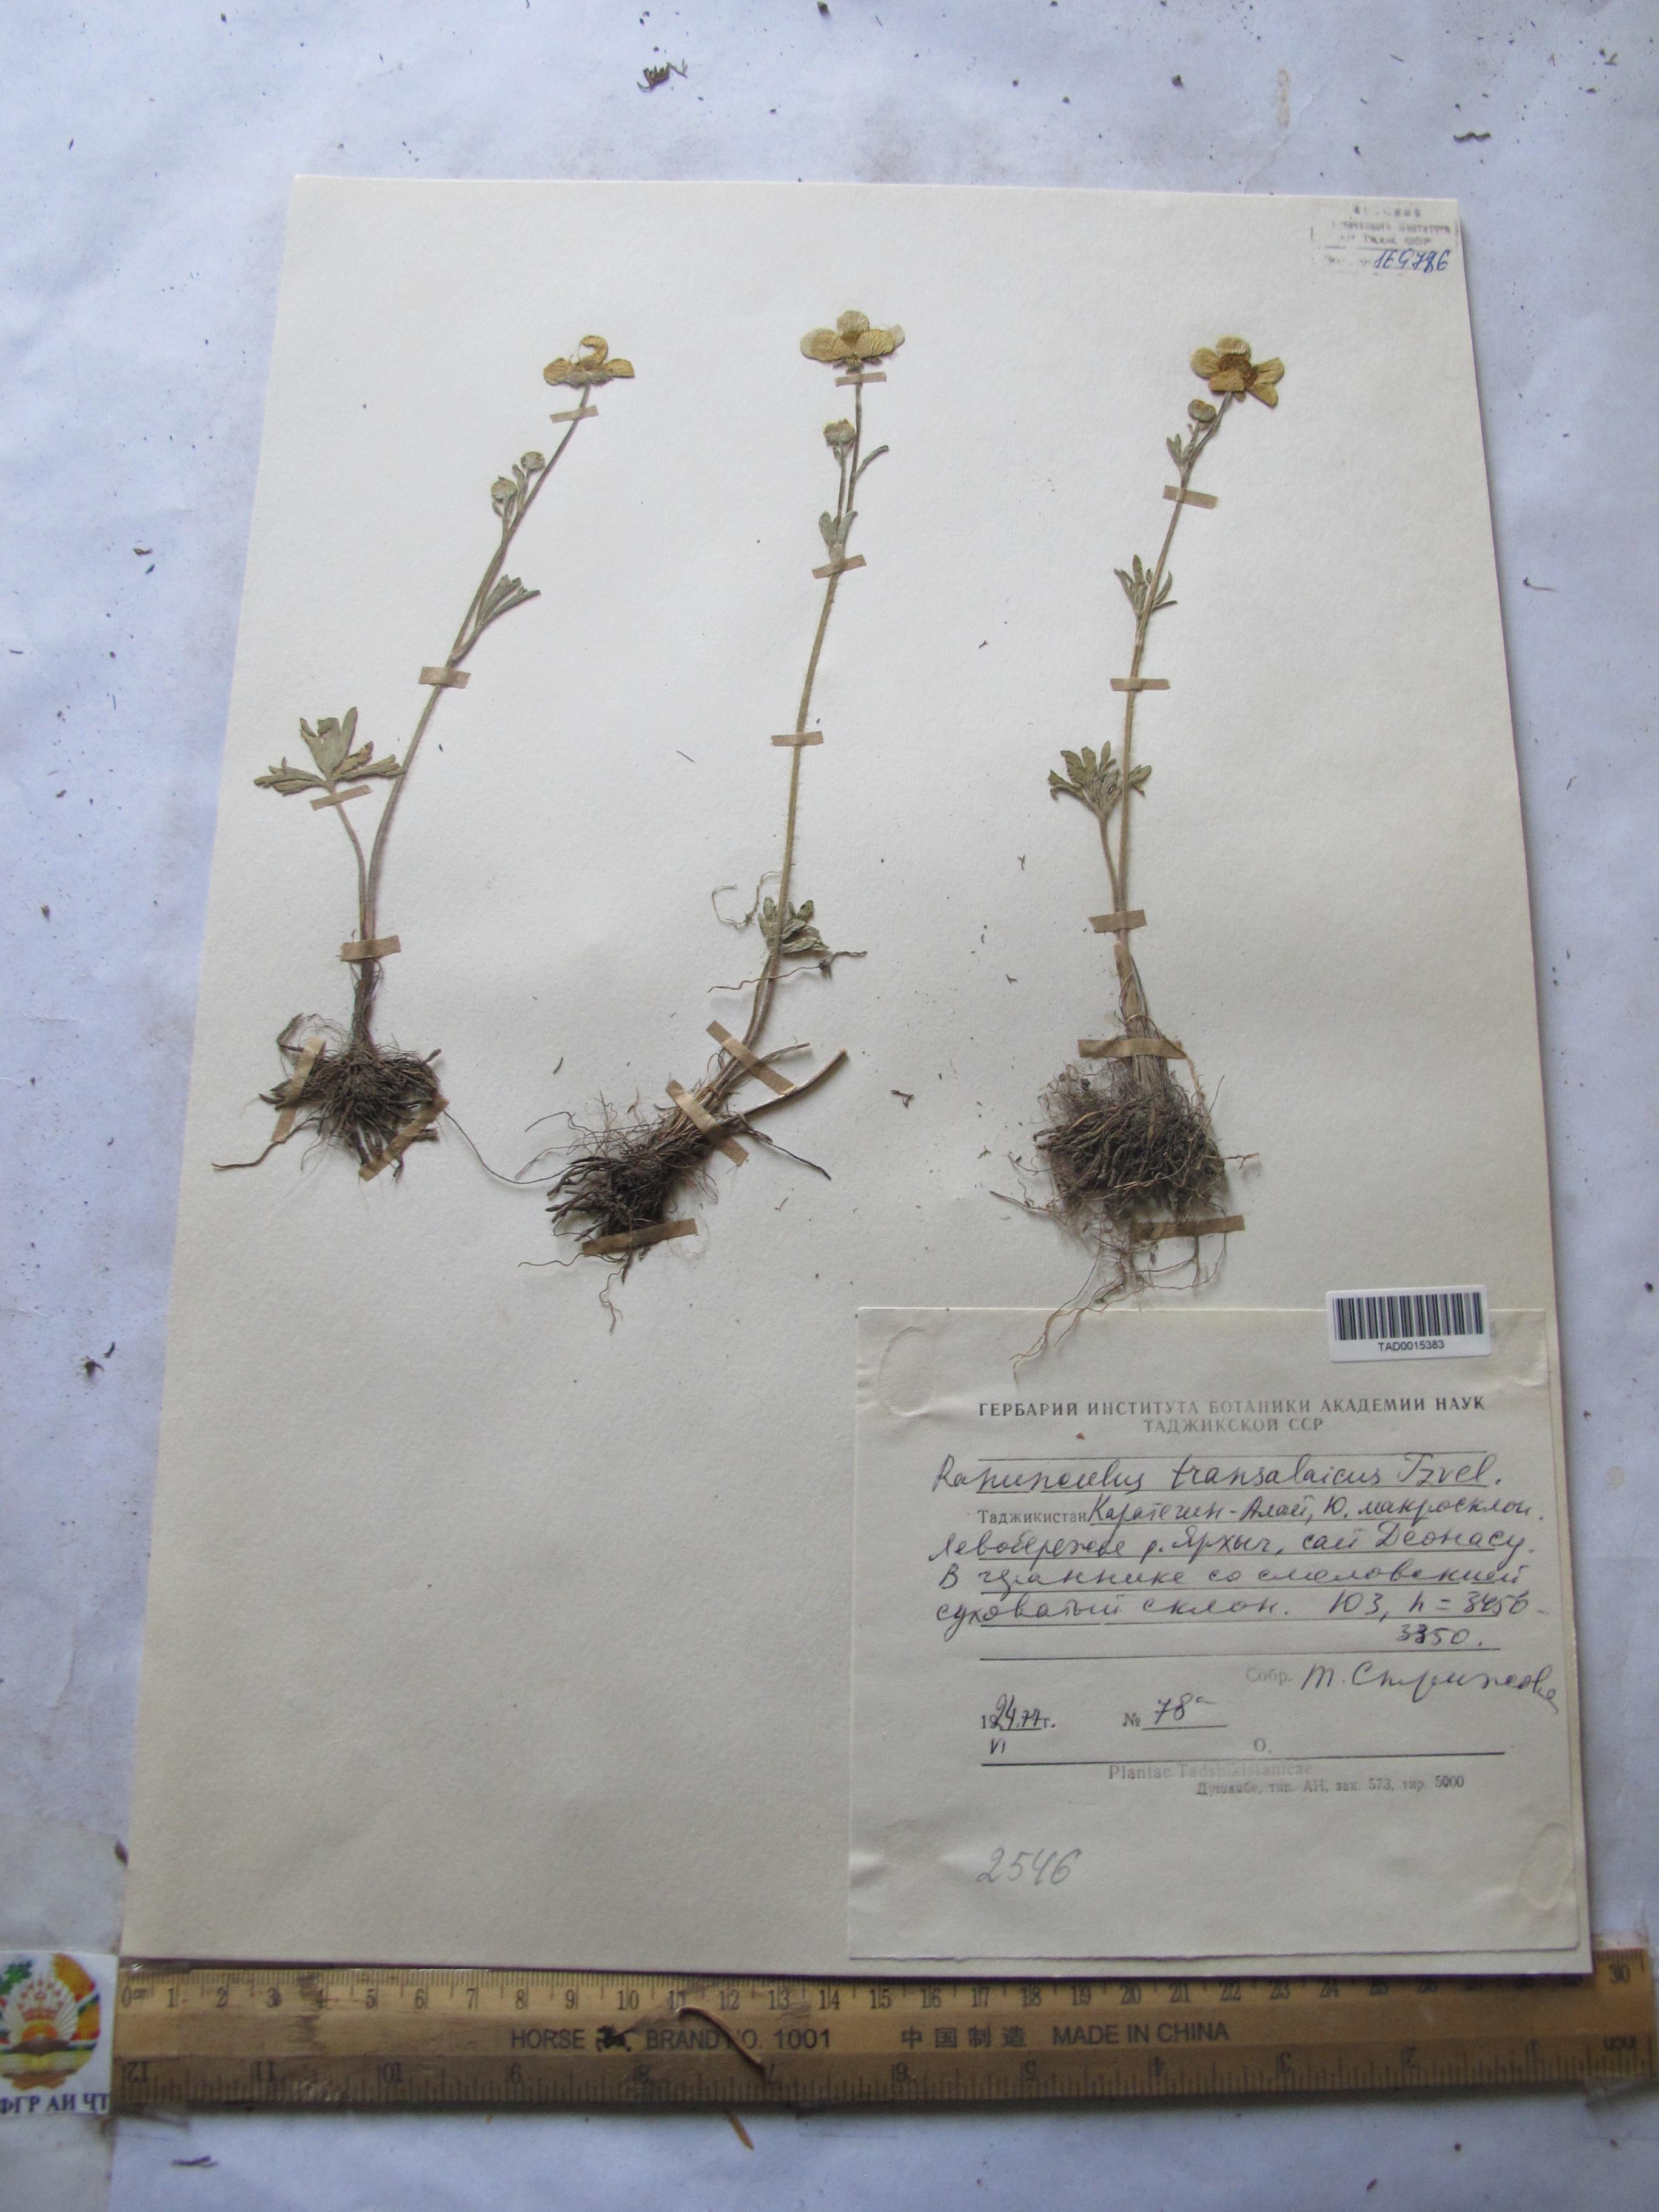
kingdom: Plantae
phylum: Tracheophyta
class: Magnoliopsida
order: Ranunculales
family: Ranunculaceae
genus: Ranunculus
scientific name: Ranunculus transalaicus
